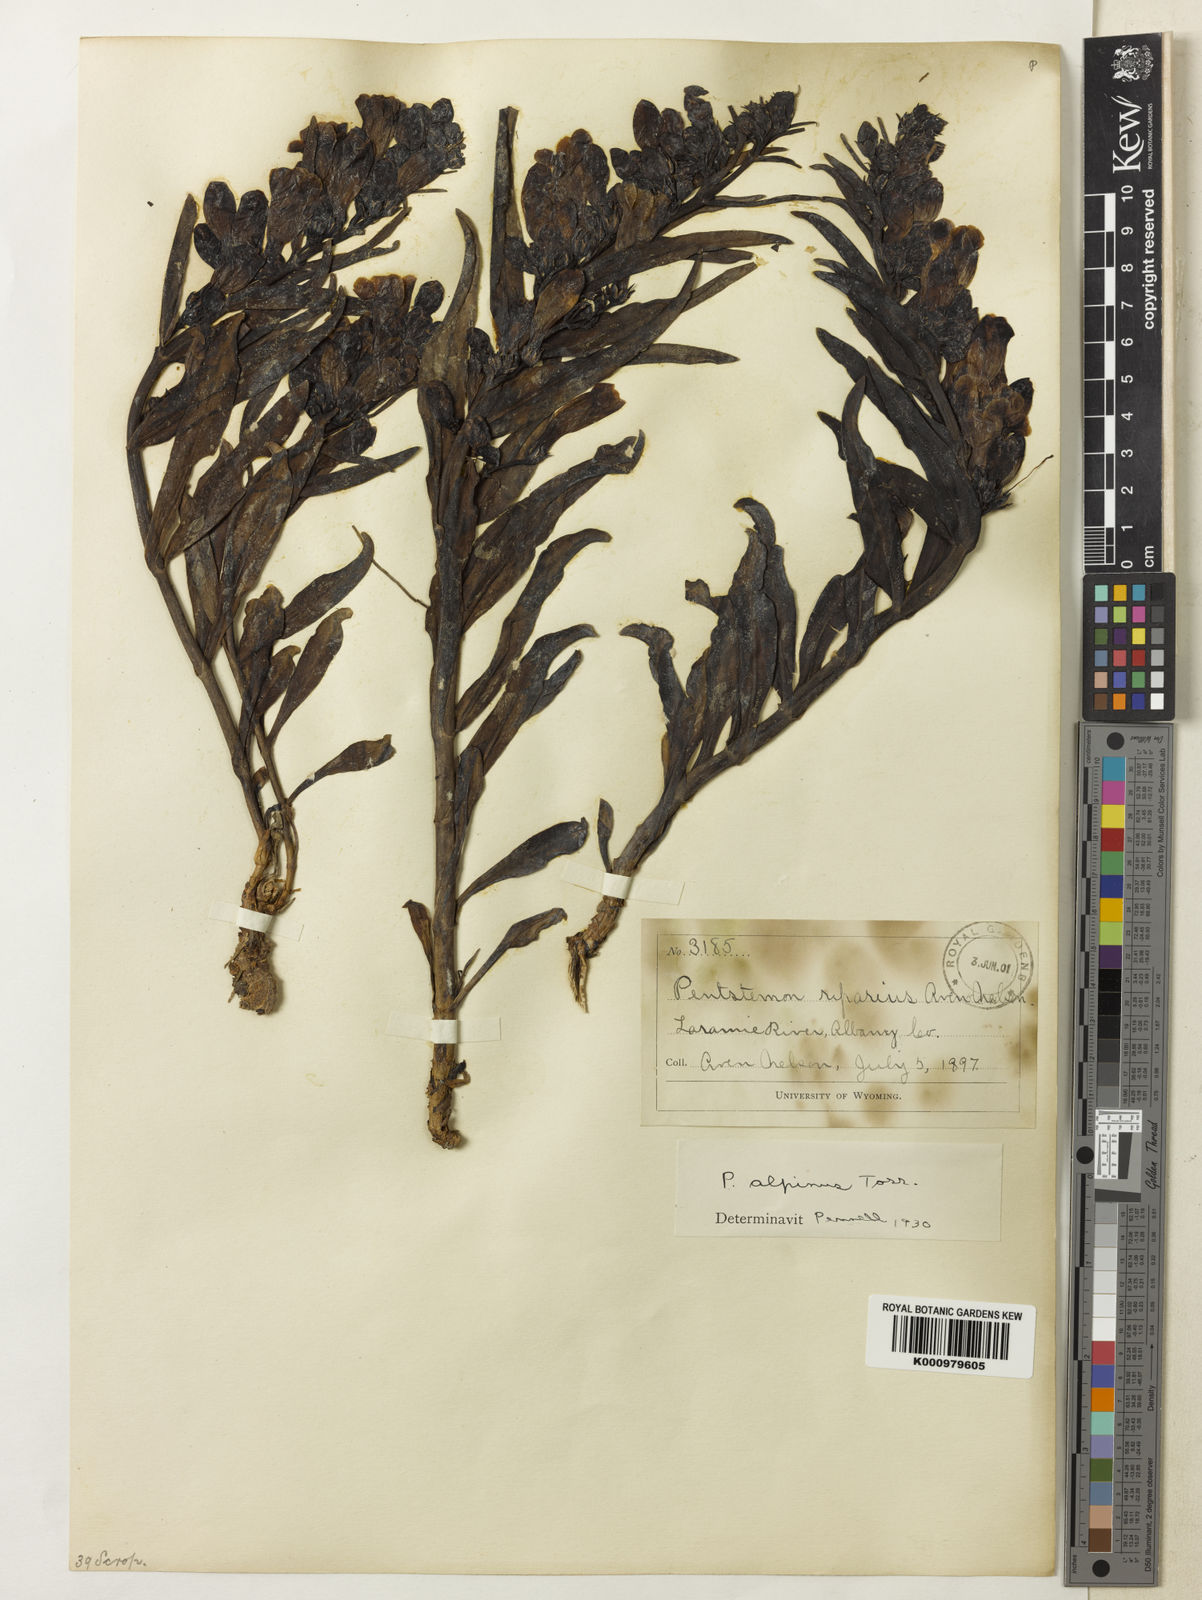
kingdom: Plantae
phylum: Tracheophyta
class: Magnoliopsida
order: Lamiales
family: Plantaginaceae
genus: Penstemon
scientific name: Penstemon glaber
